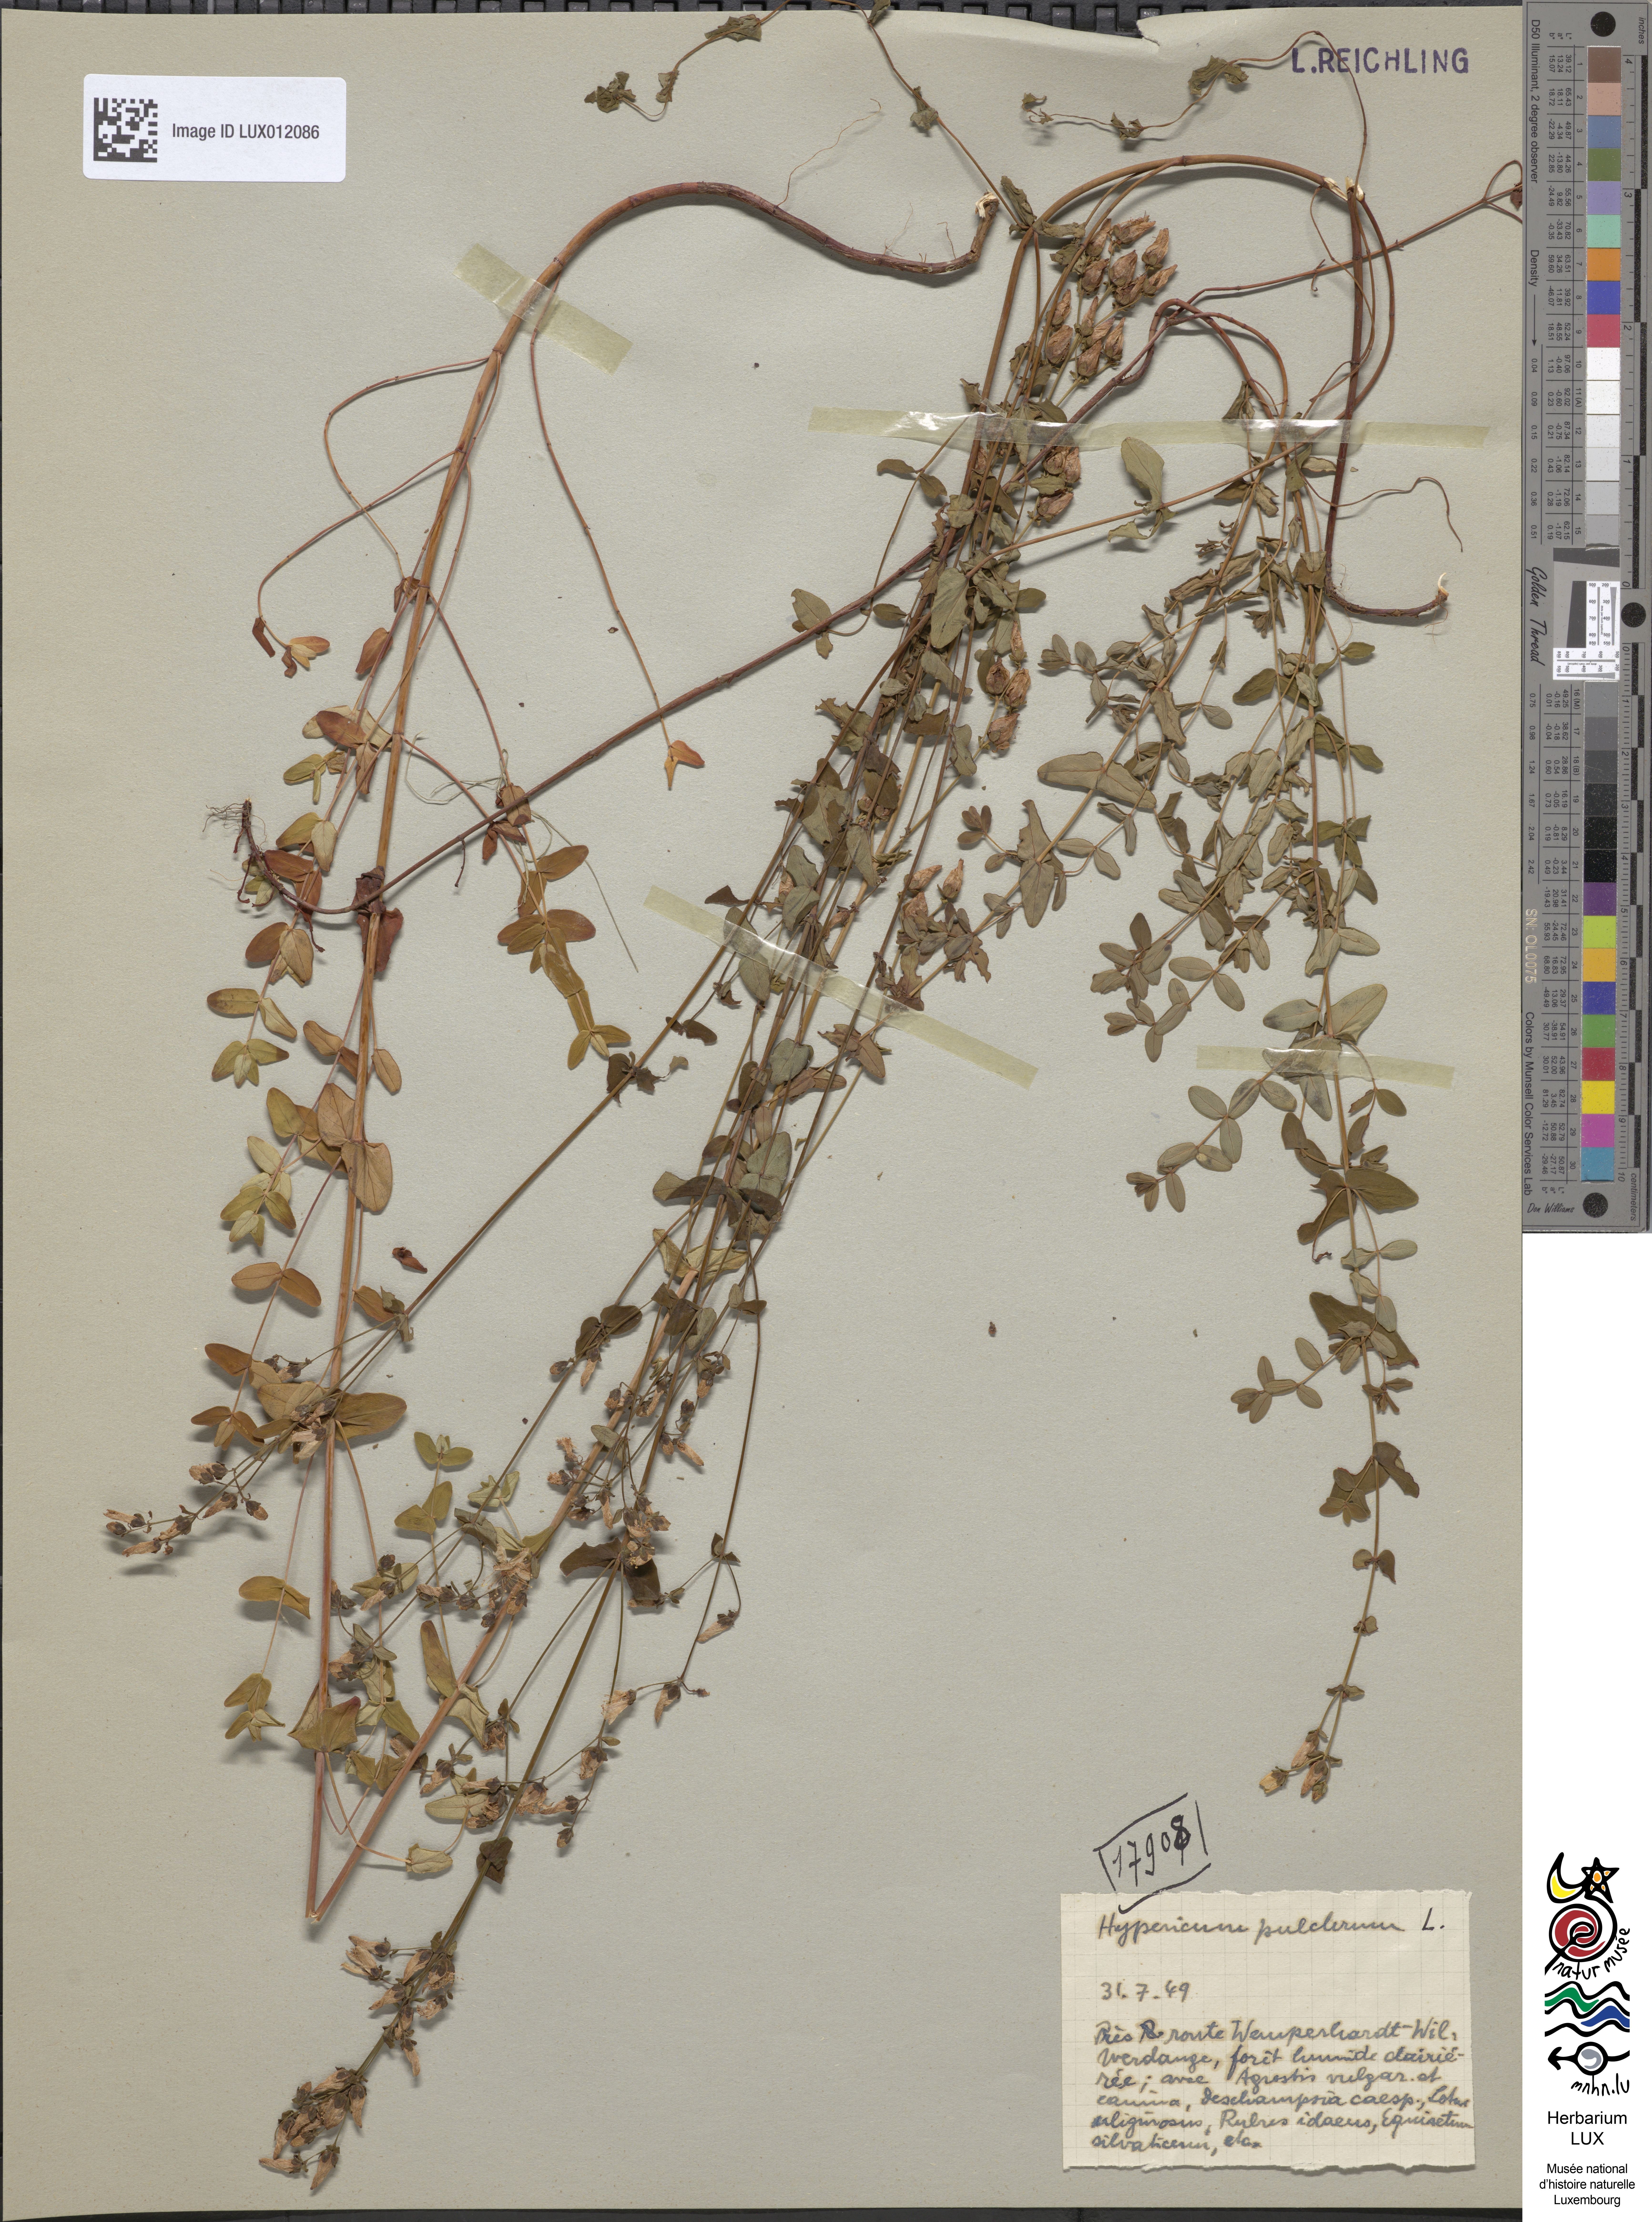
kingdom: Plantae
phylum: Tracheophyta
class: Magnoliopsida
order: Malpighiales
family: Hypericaceae
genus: Hypericum
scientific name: Hypericum pulchrum
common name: Slender st. john's-wort
